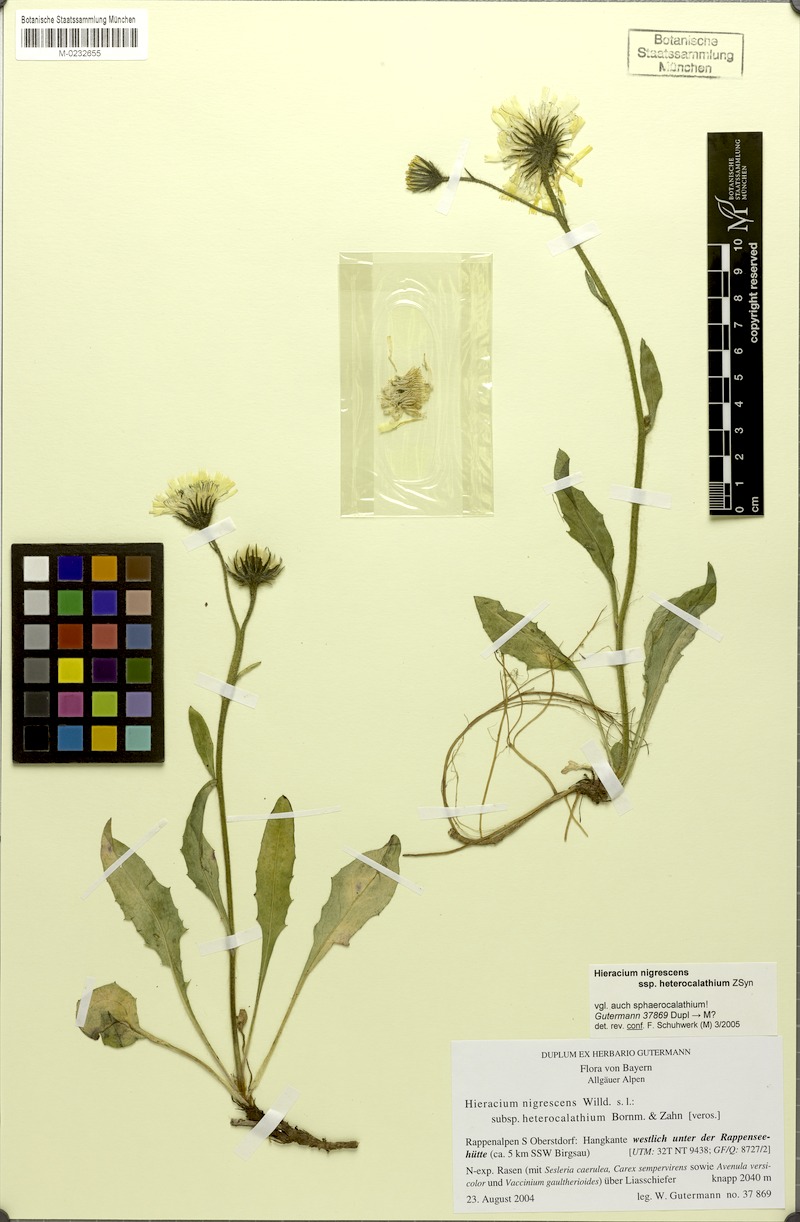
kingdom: Plantae
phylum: Tracheophyta
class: Magnoliopsida
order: Asterales
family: Asteraceae
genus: Hieracium
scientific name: Hieracium nigrescens
